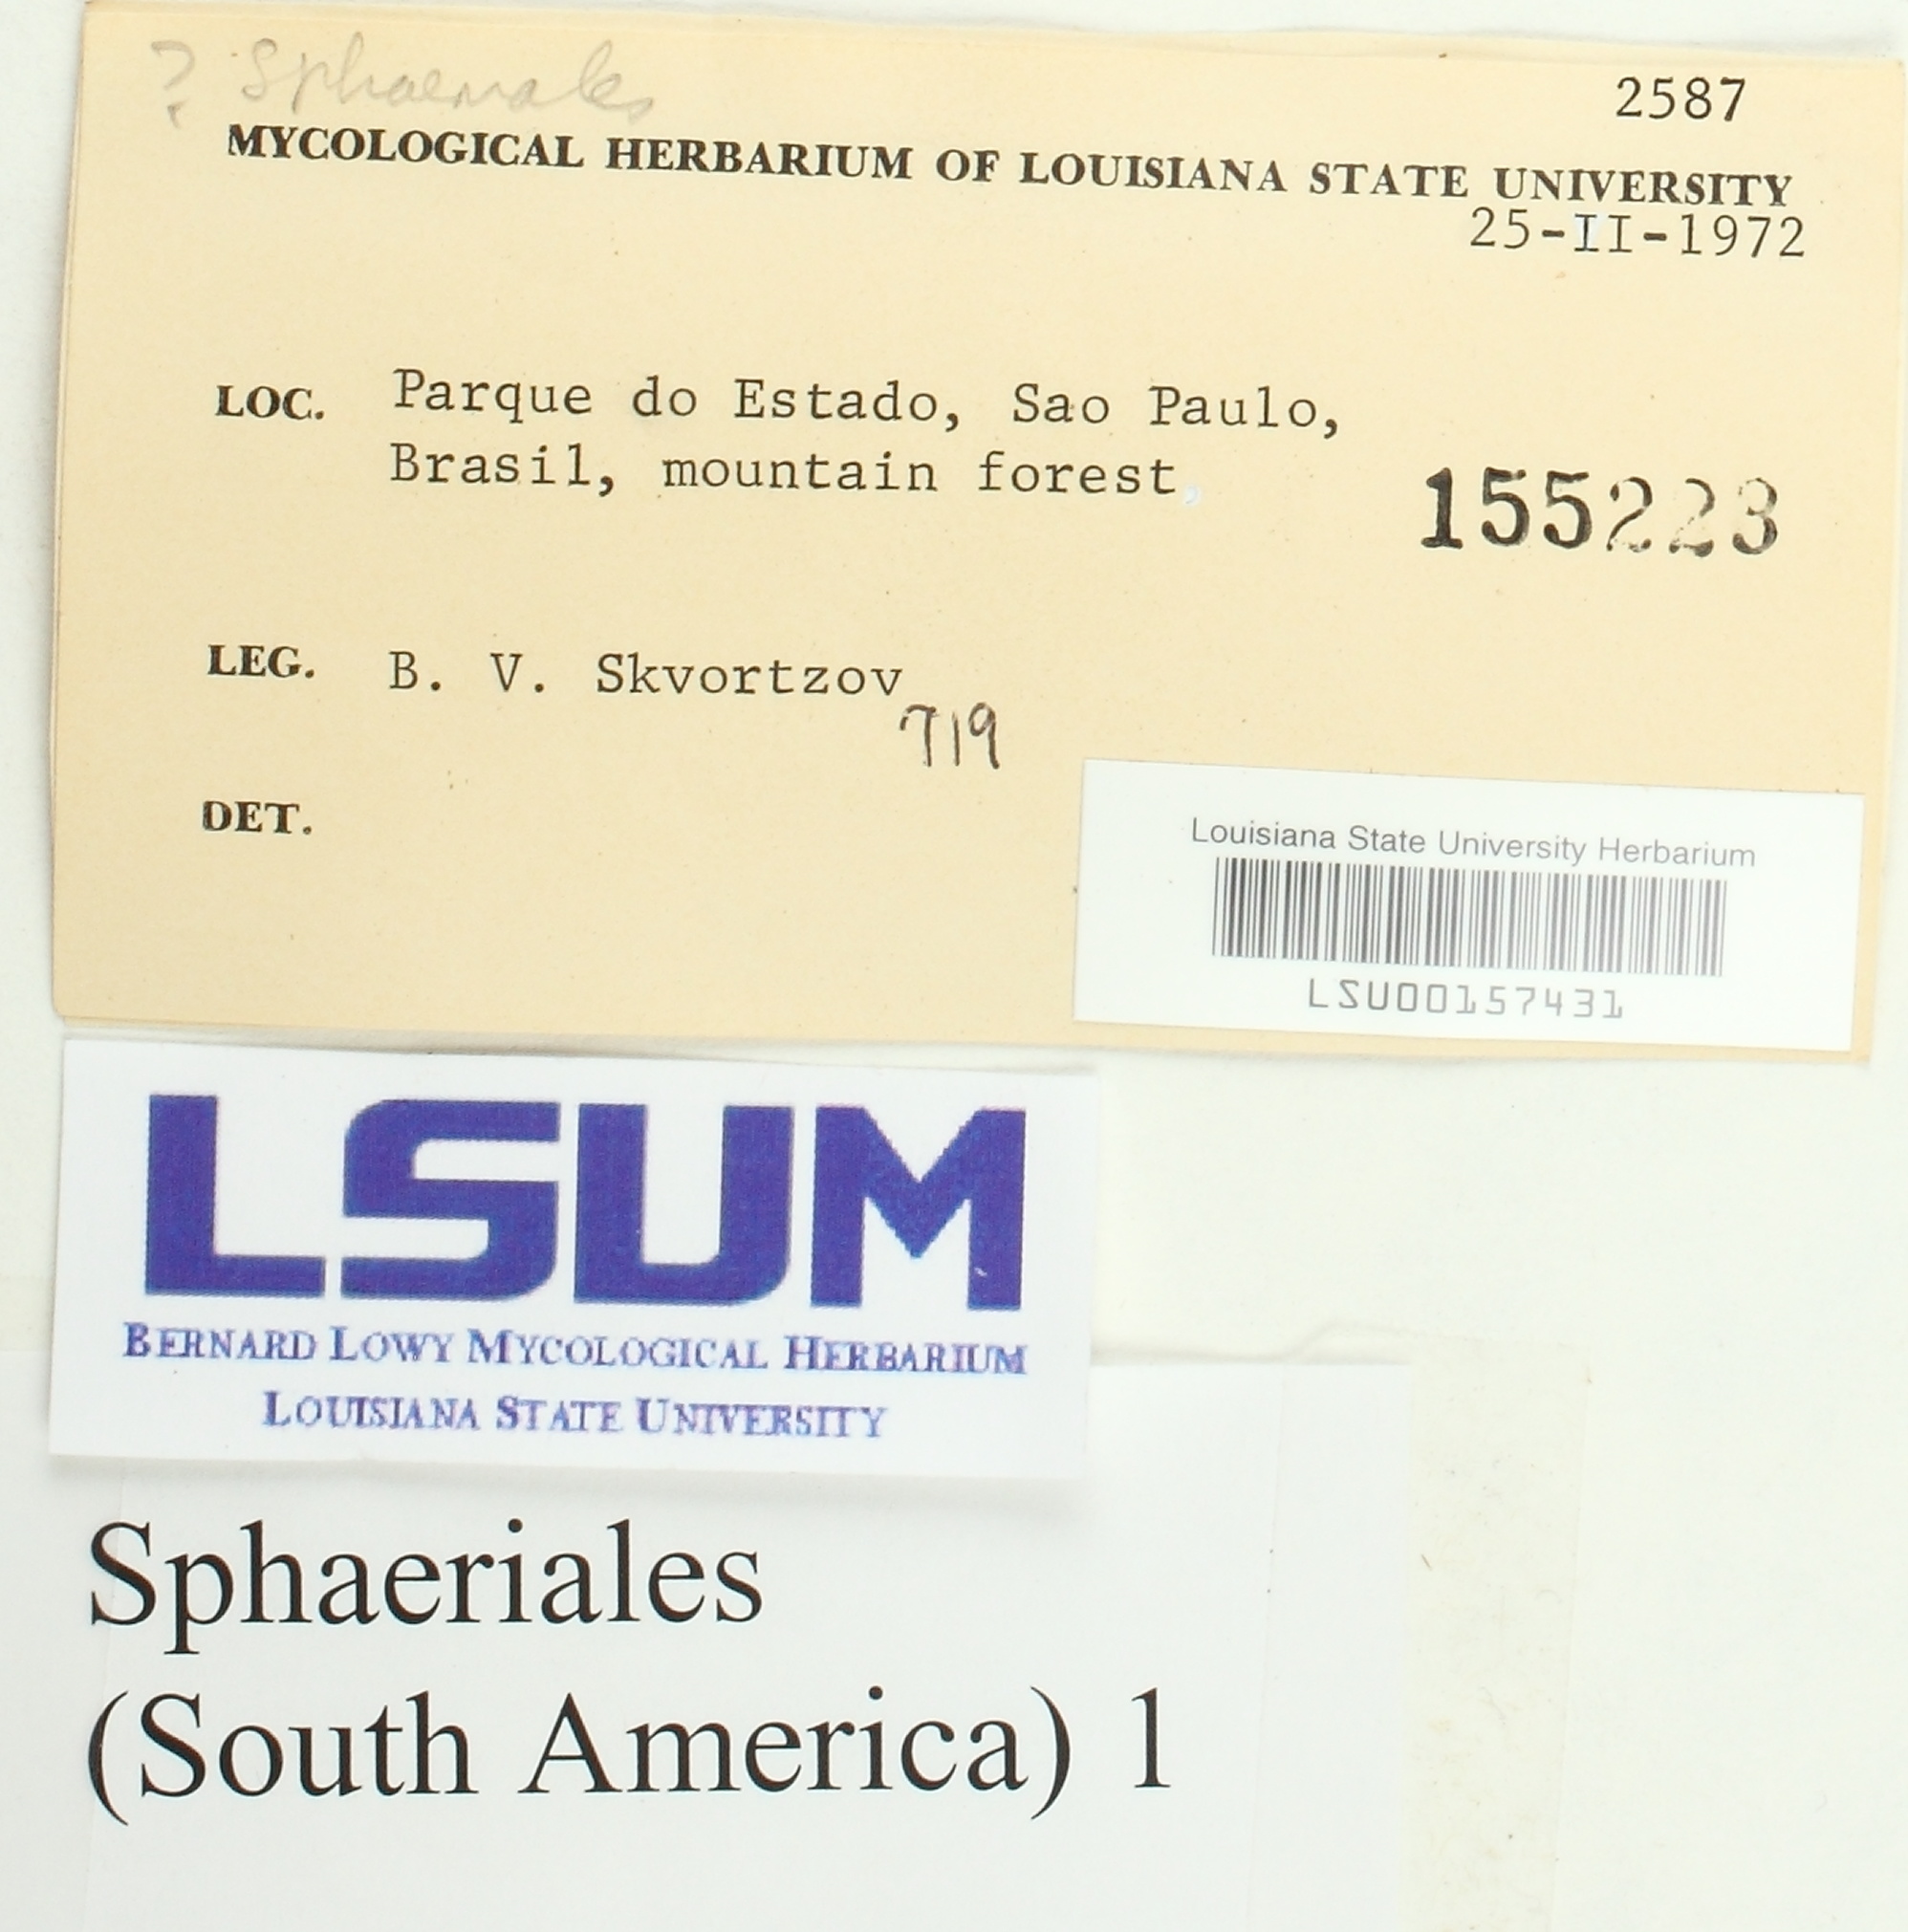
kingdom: Fungi
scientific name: Fungi
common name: Fungi
